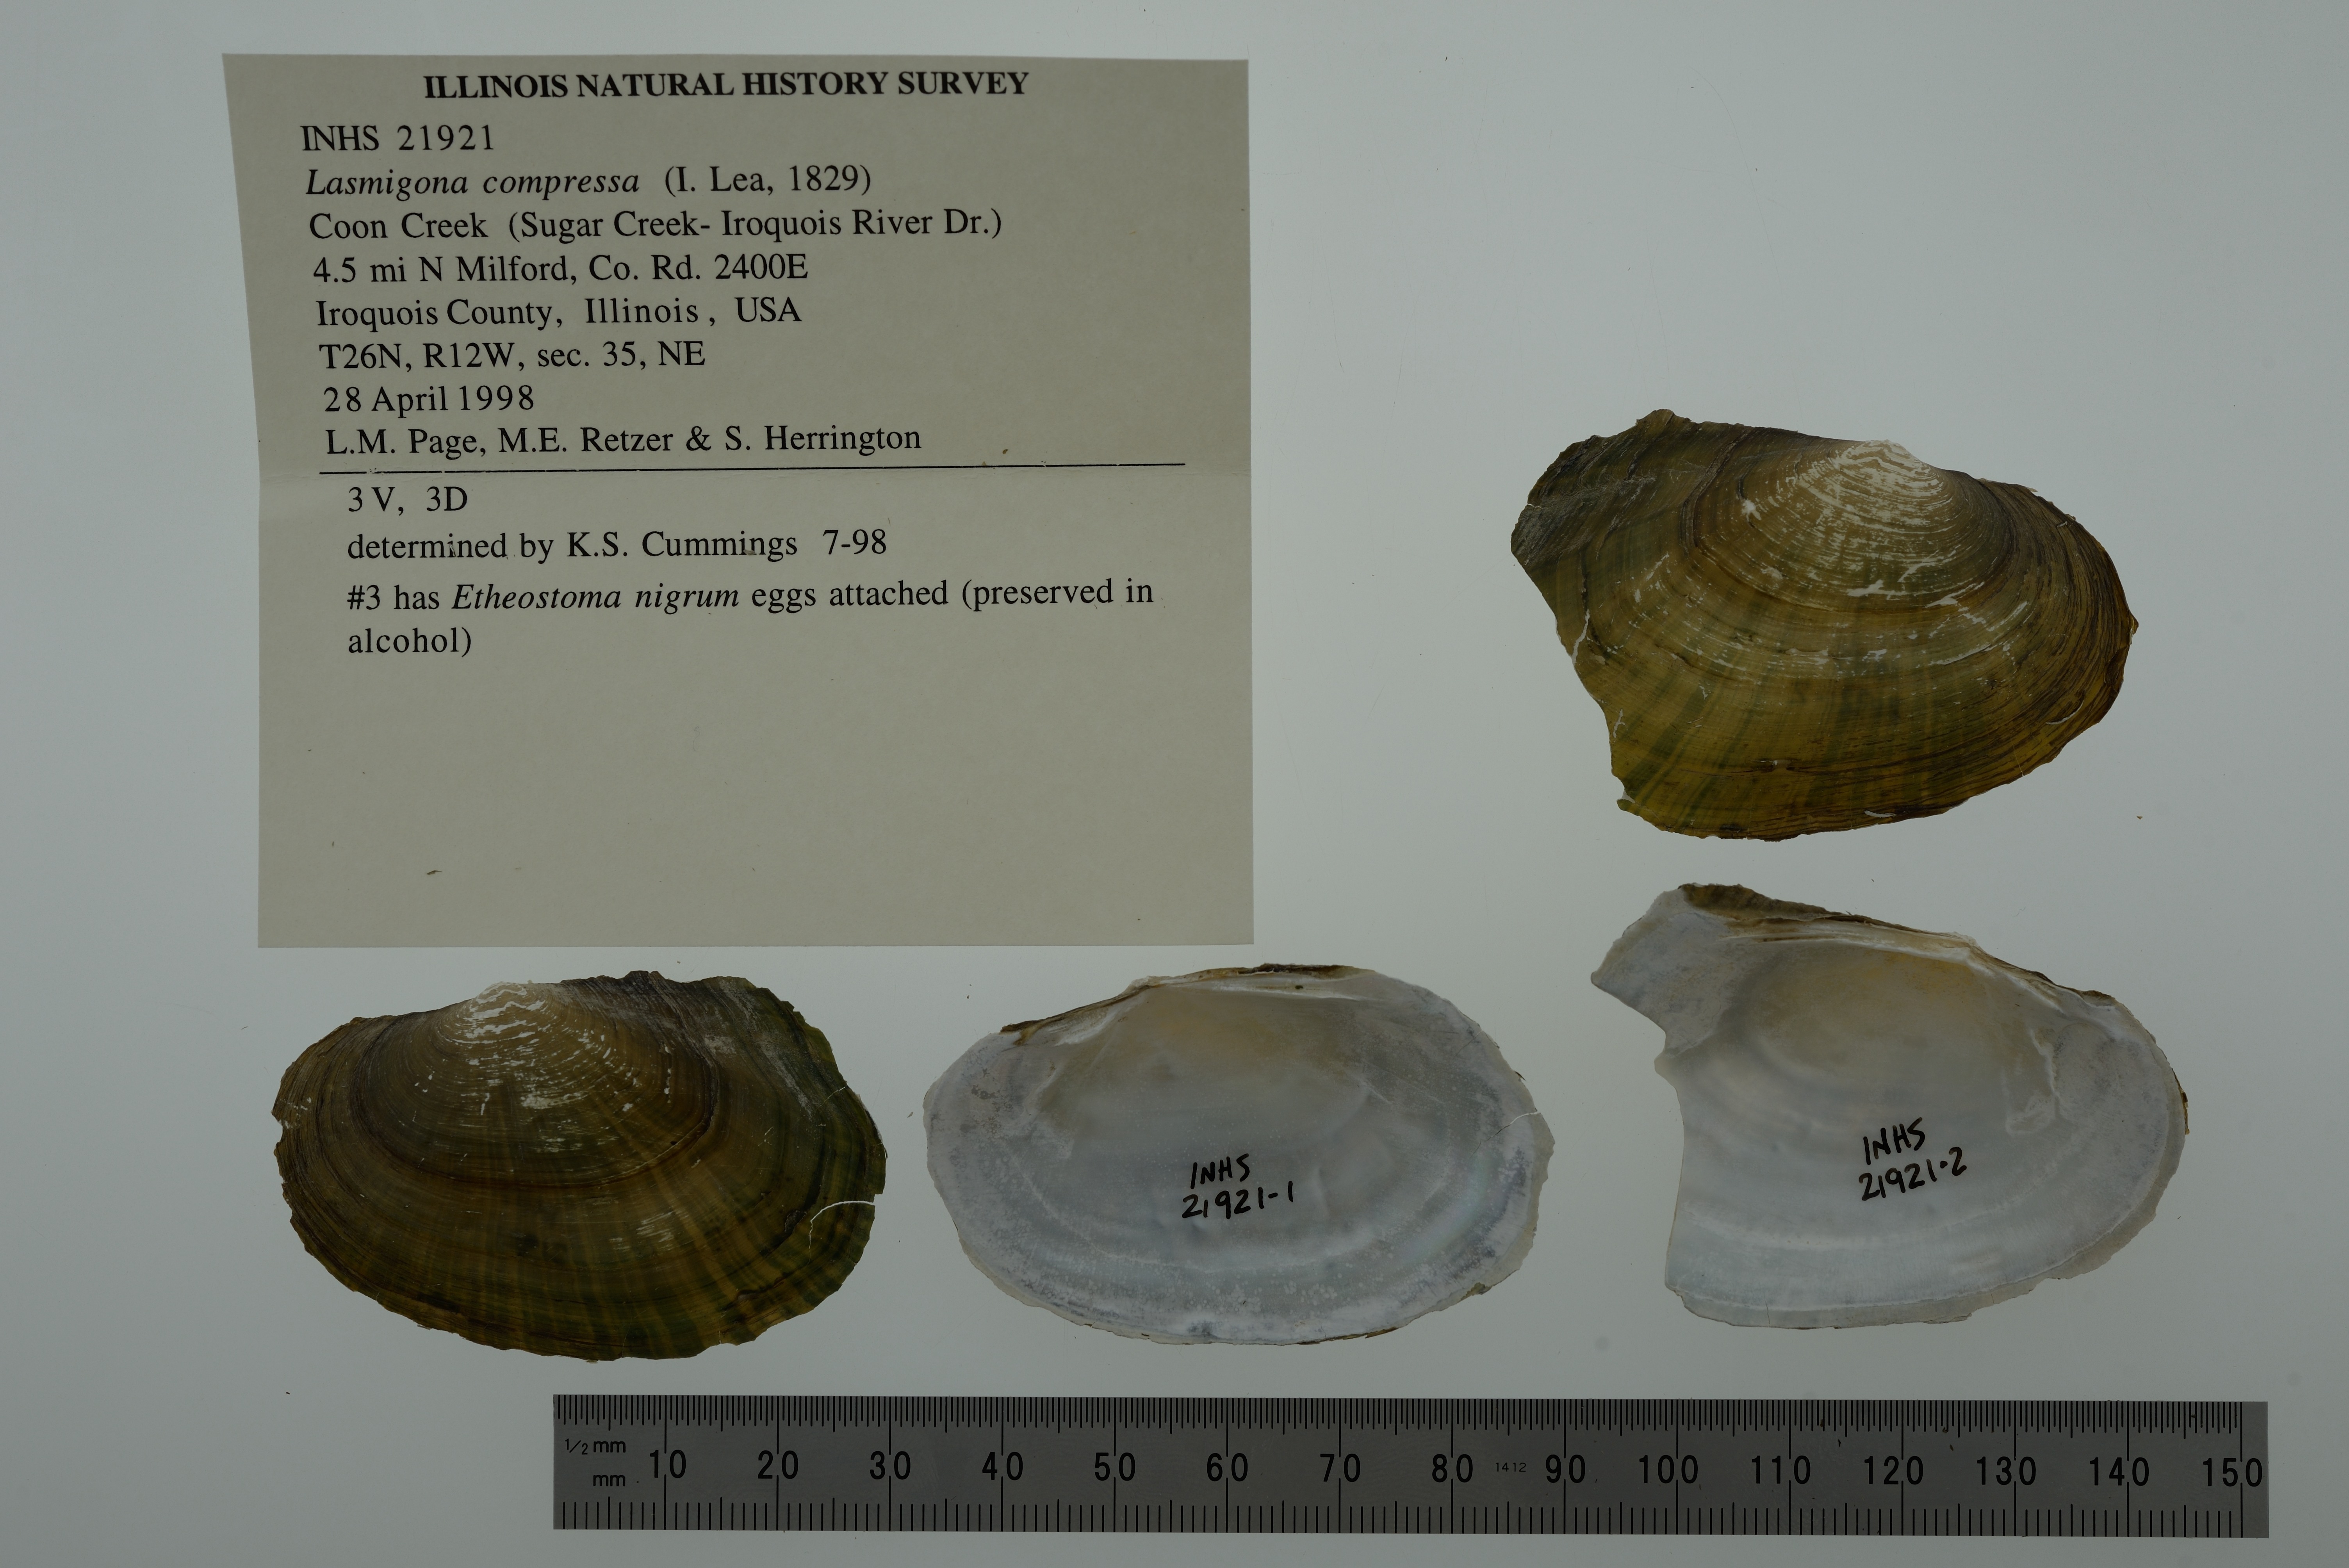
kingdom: Animalia
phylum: Mollusca
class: Bivalvia
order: Unionida
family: Unionidae
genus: Lasmigona
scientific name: Lasmigona compressa
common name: Creek heelsplitter
